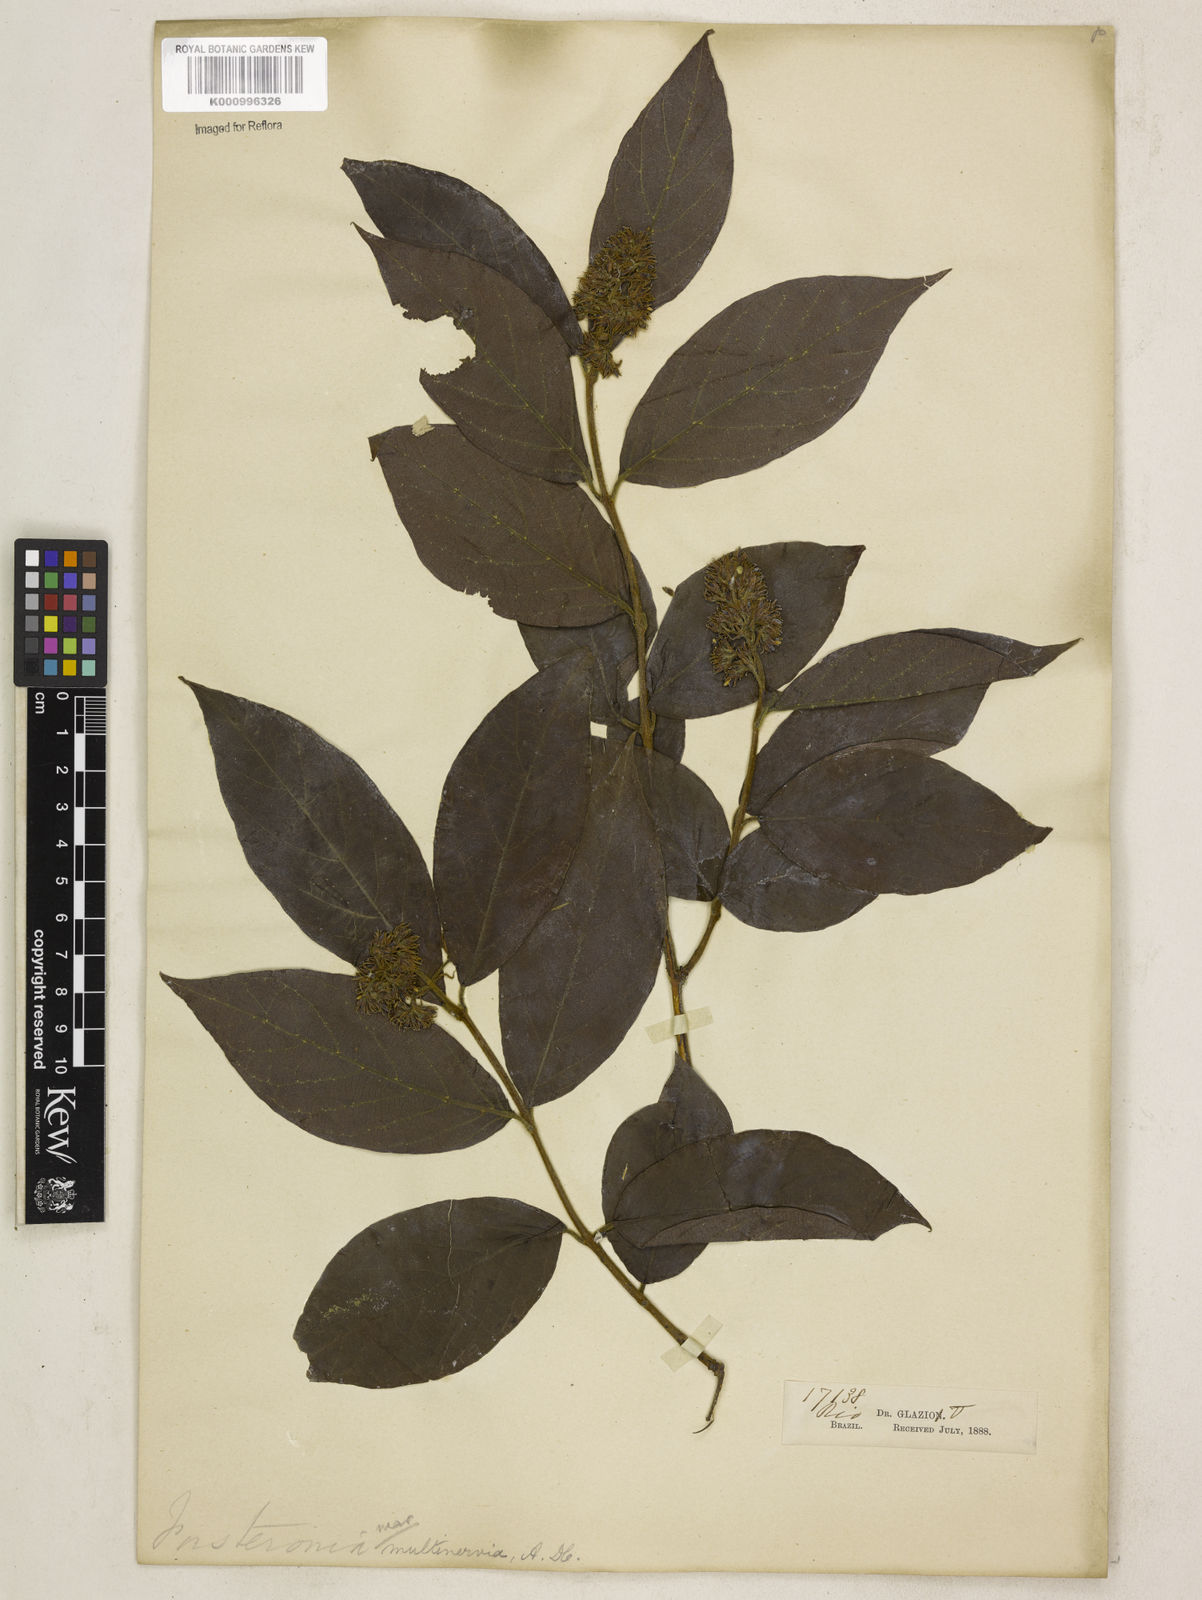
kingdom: Plantae
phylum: Tracheophyta
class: Magnoliopsida
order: Gentianales
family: Apocynaceae
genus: Forsteronia
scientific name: Forsteronia
